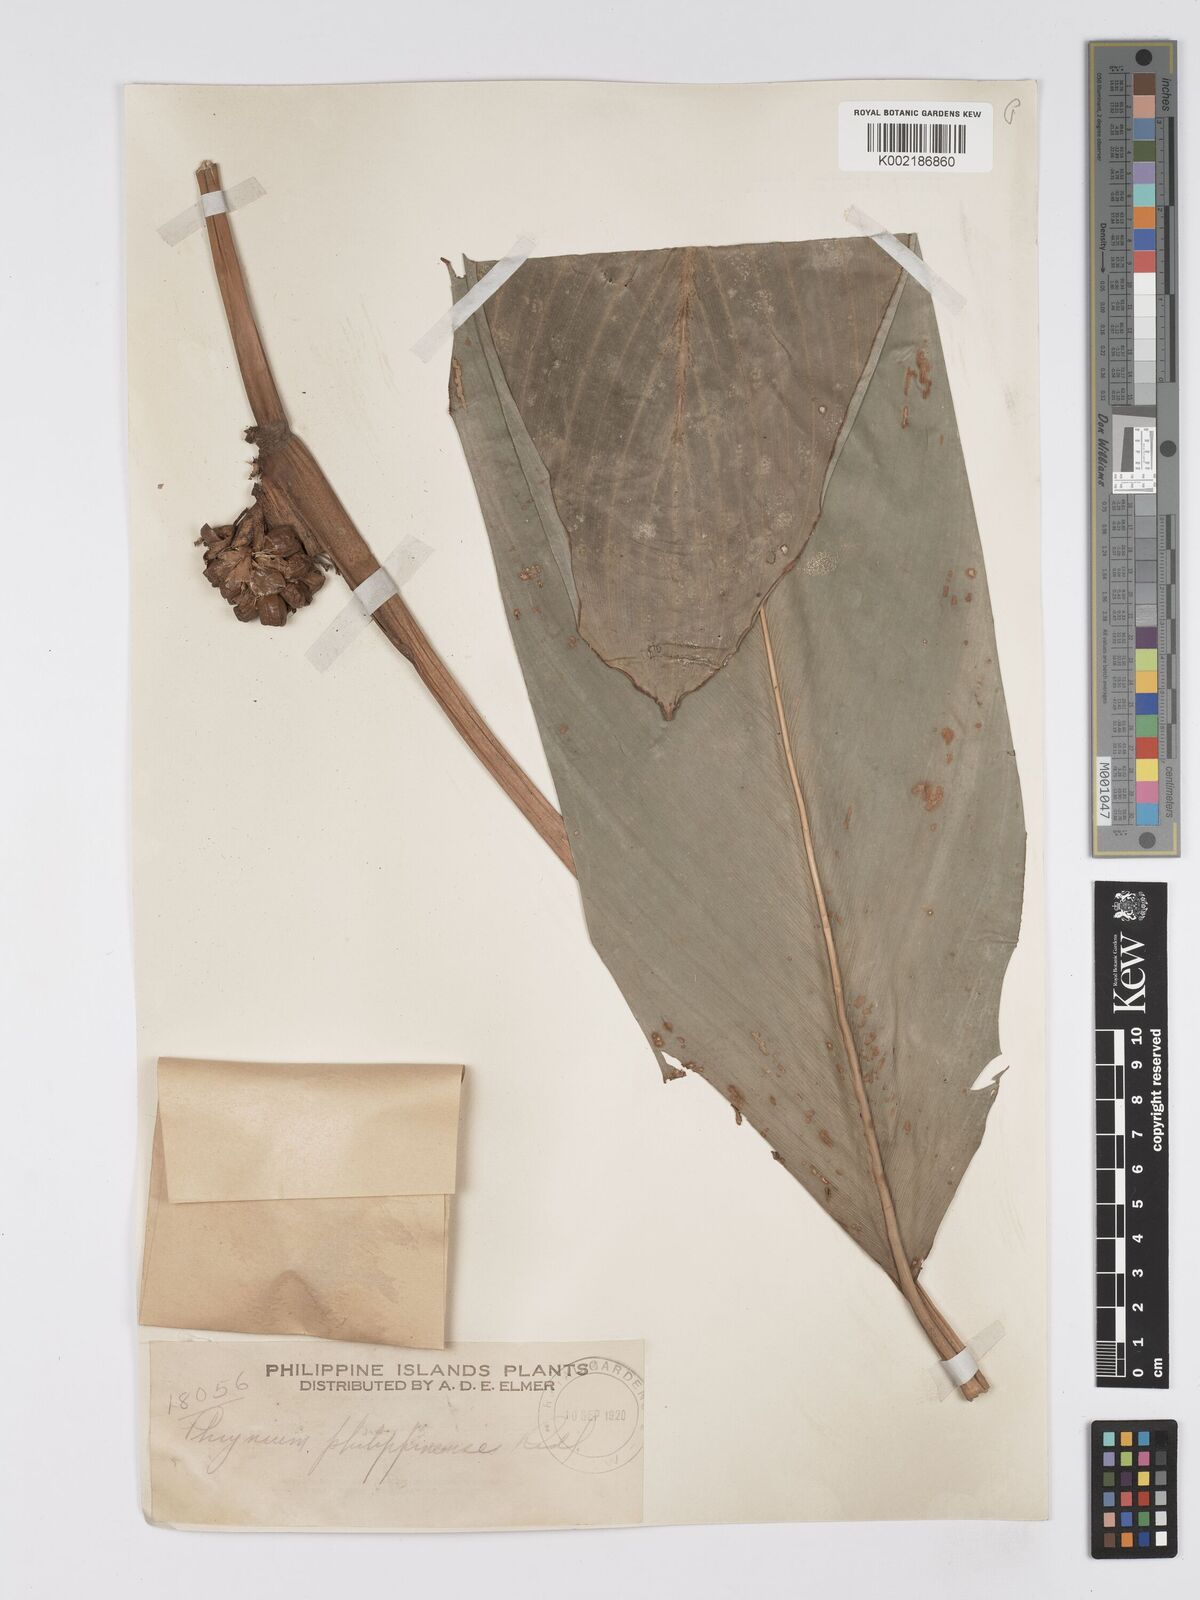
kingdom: Plantae
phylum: Tracheophyta
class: Liliopsida
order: Zingiberales
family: Marantaceae
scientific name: Marantaceae
